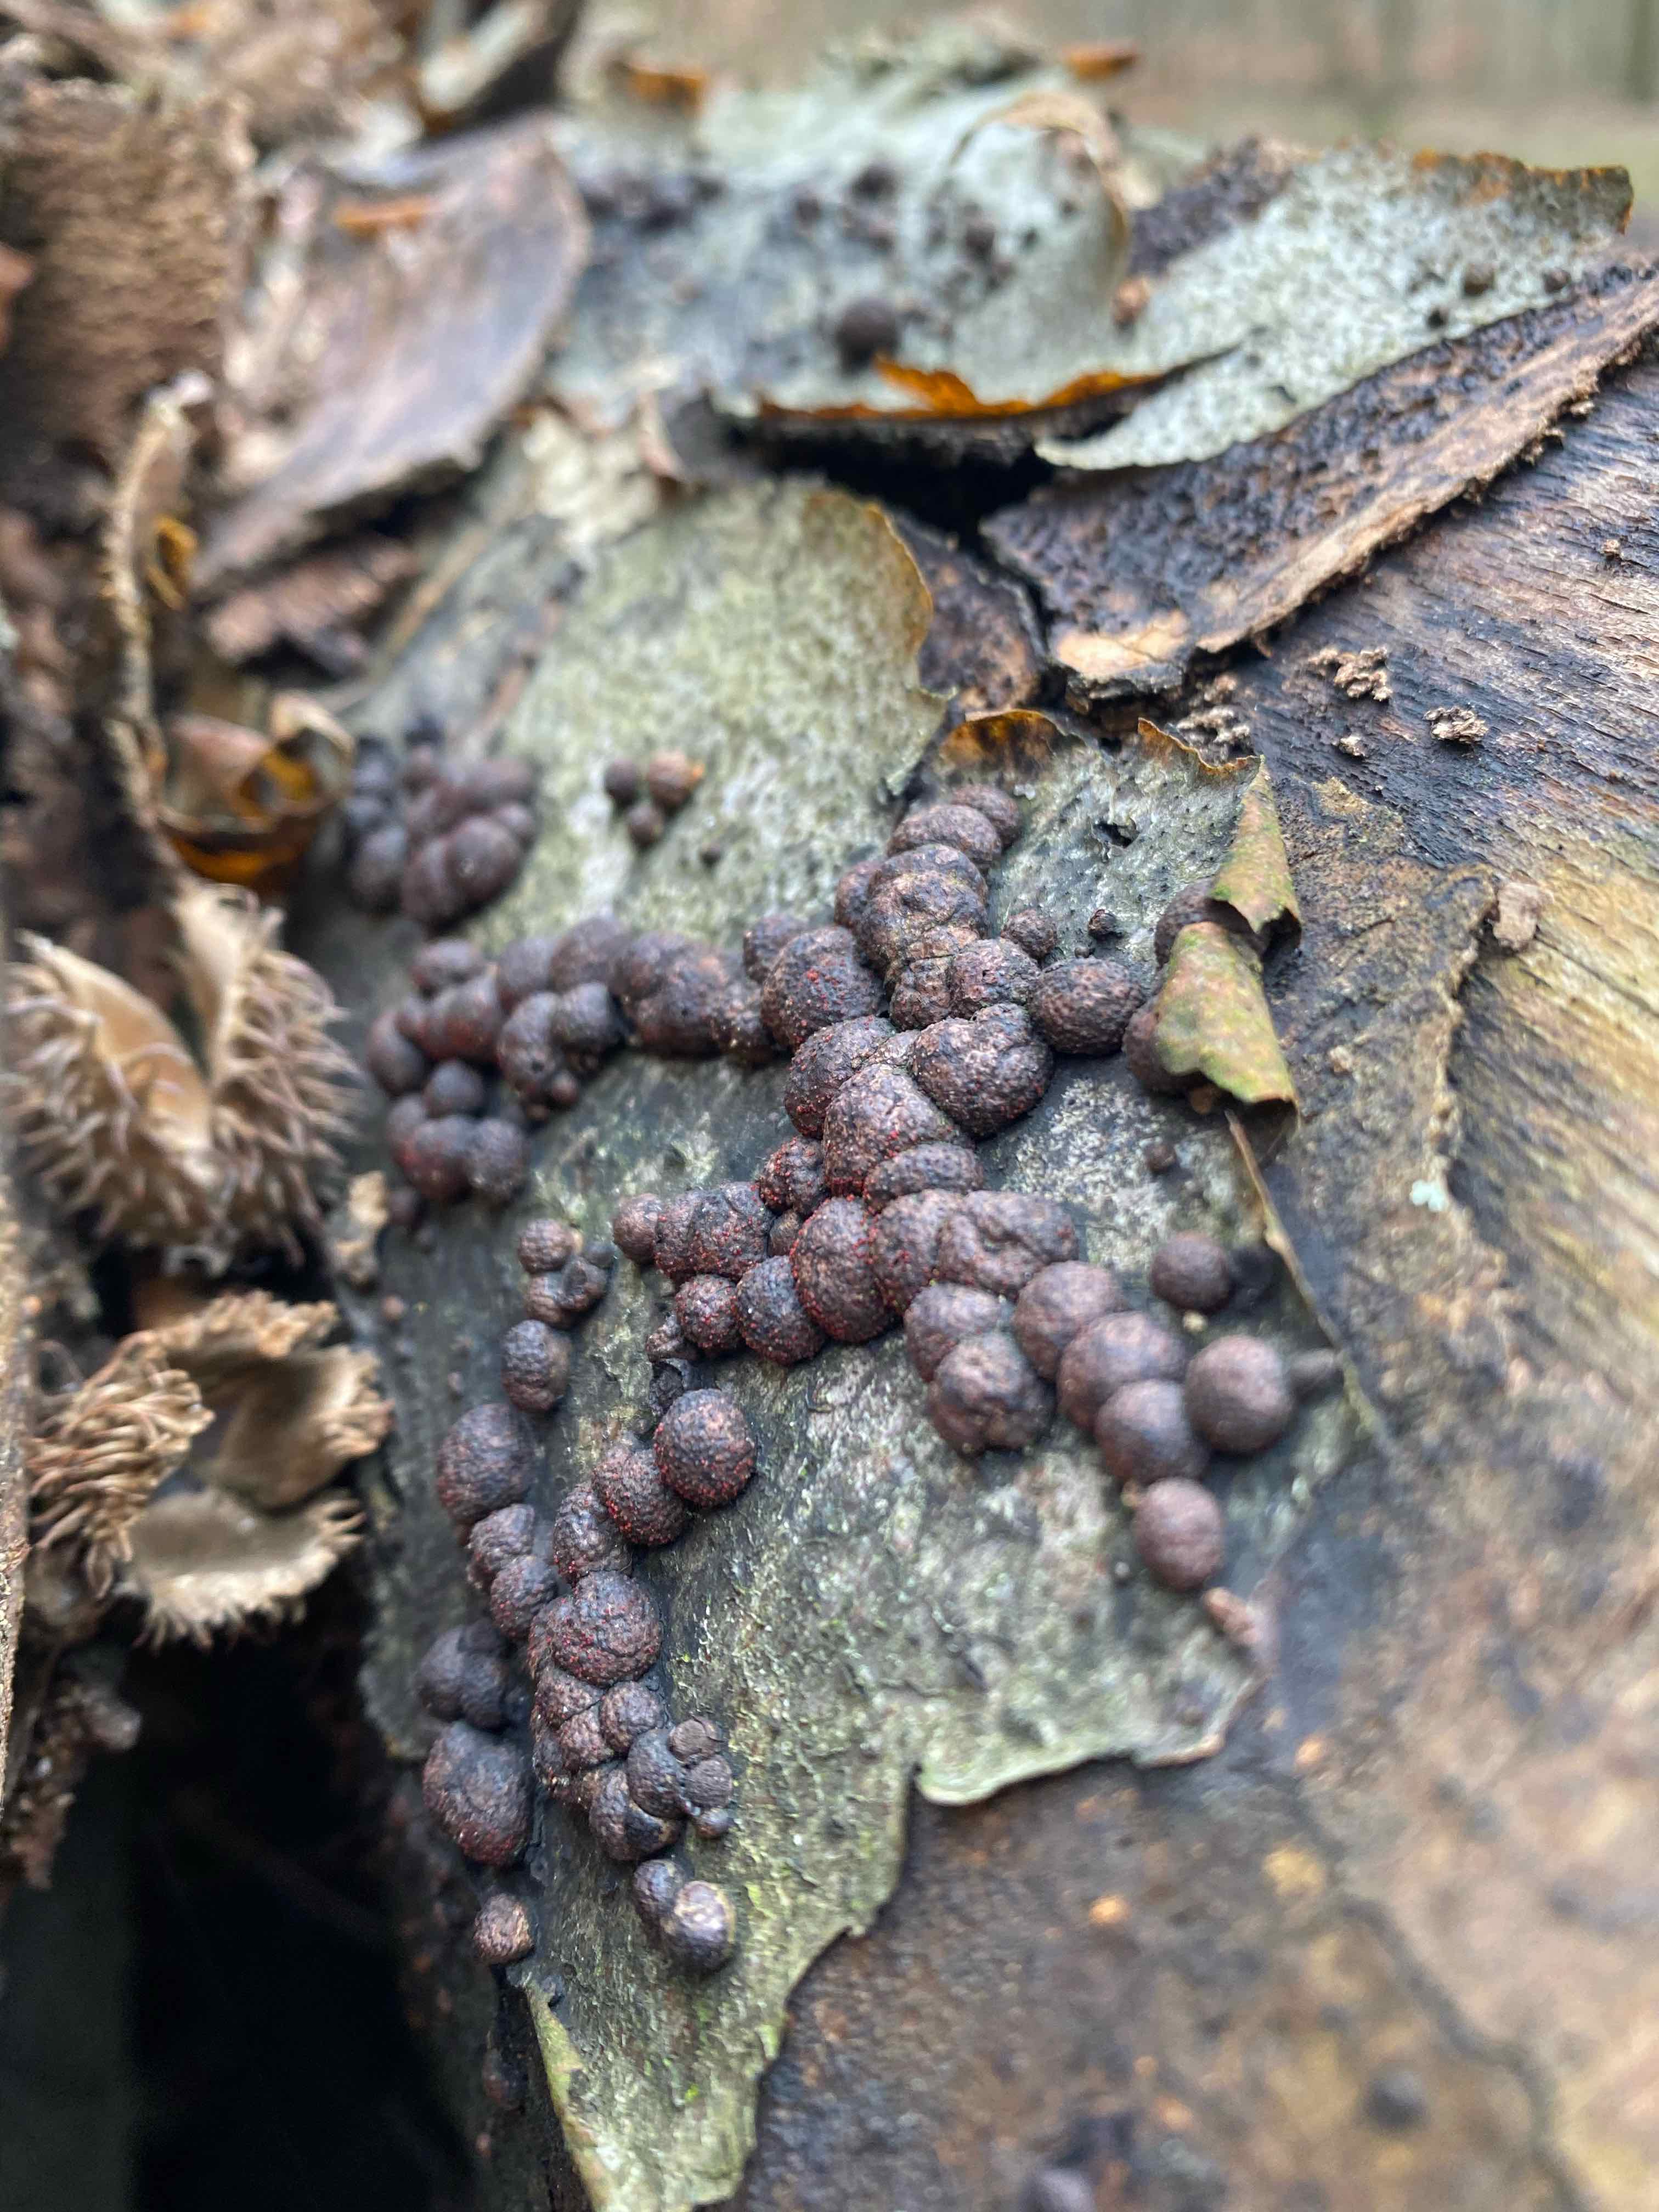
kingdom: Fungi
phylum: Ascomycota
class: Sordariomycetes
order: Xylariales
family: Hypoxylaceae
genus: Hypoxylon
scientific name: Hypoxylon fragiforme
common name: kuljordbær
